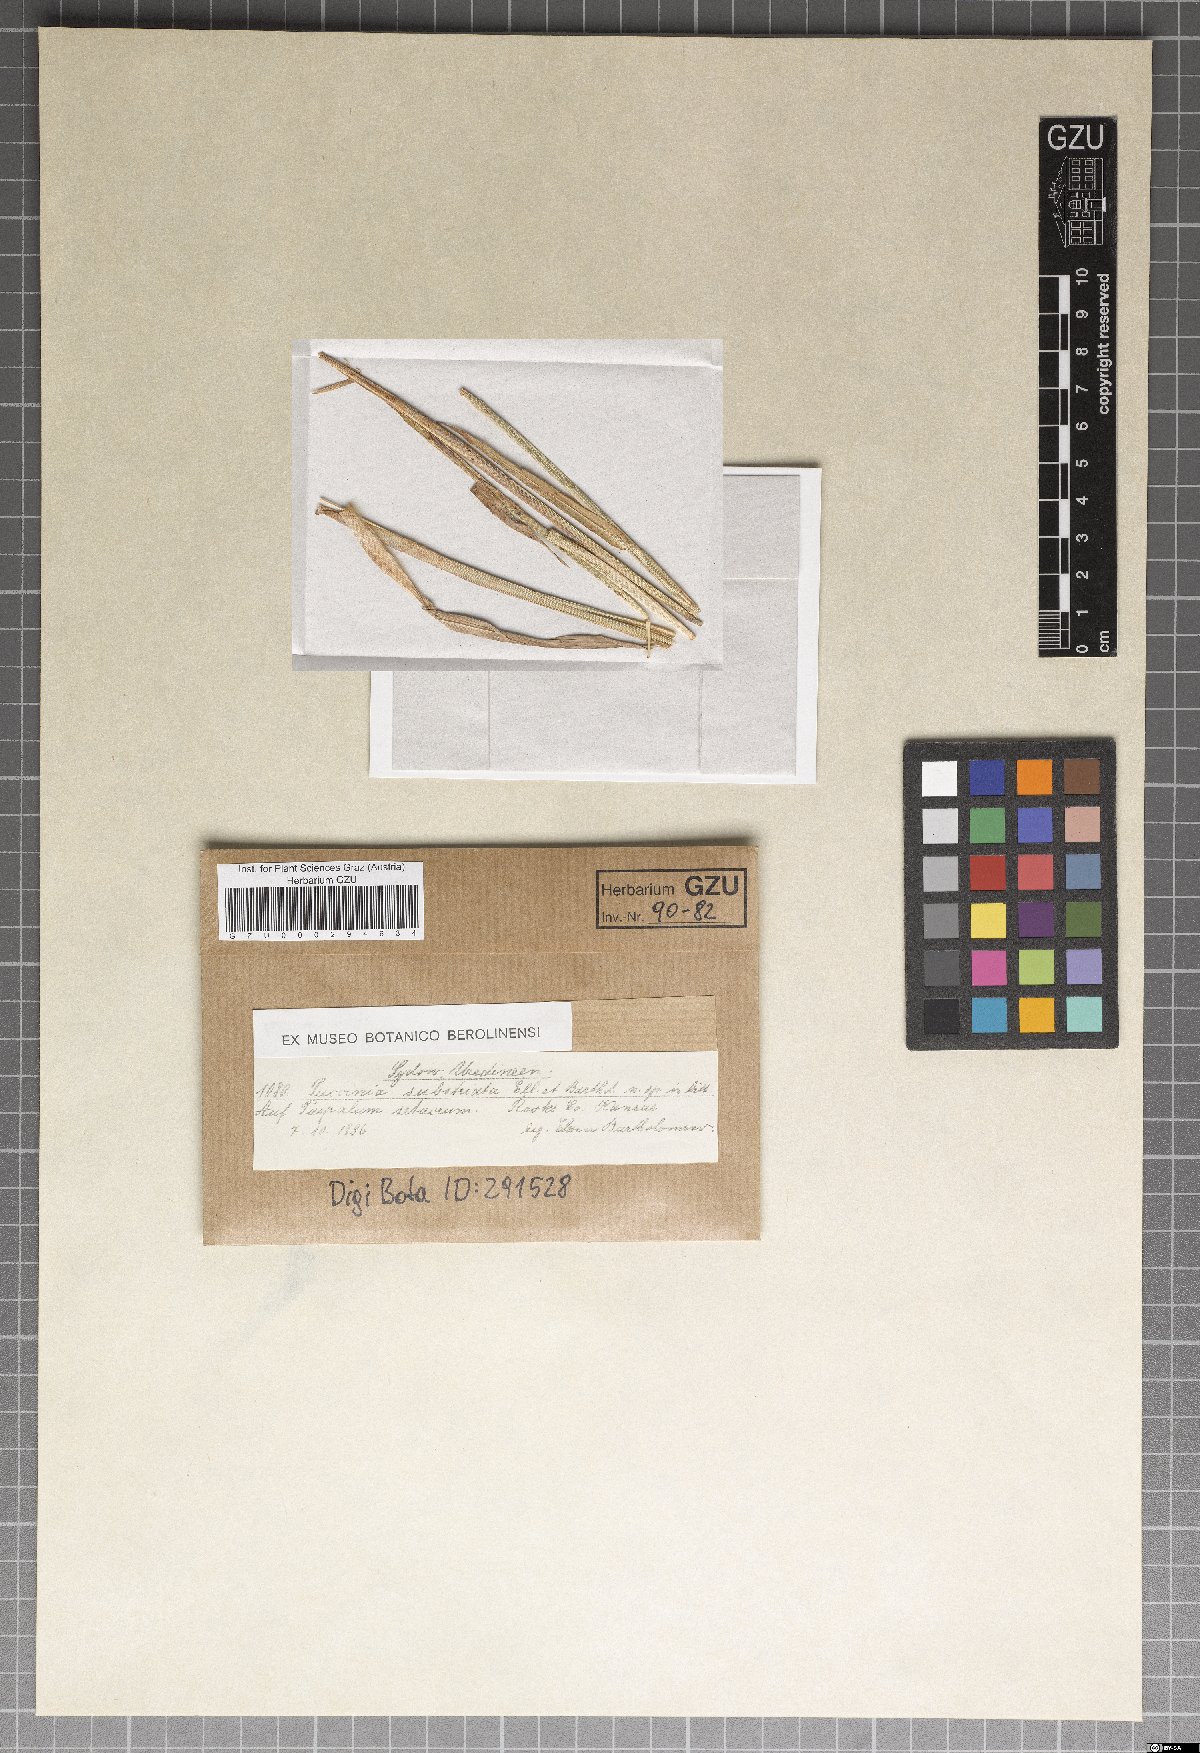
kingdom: Fungi
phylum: Basidiomycota
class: Pucciniomycetes
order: Pucciniales
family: Pucciniaceae
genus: Puccinia
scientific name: Puccinia substriata
